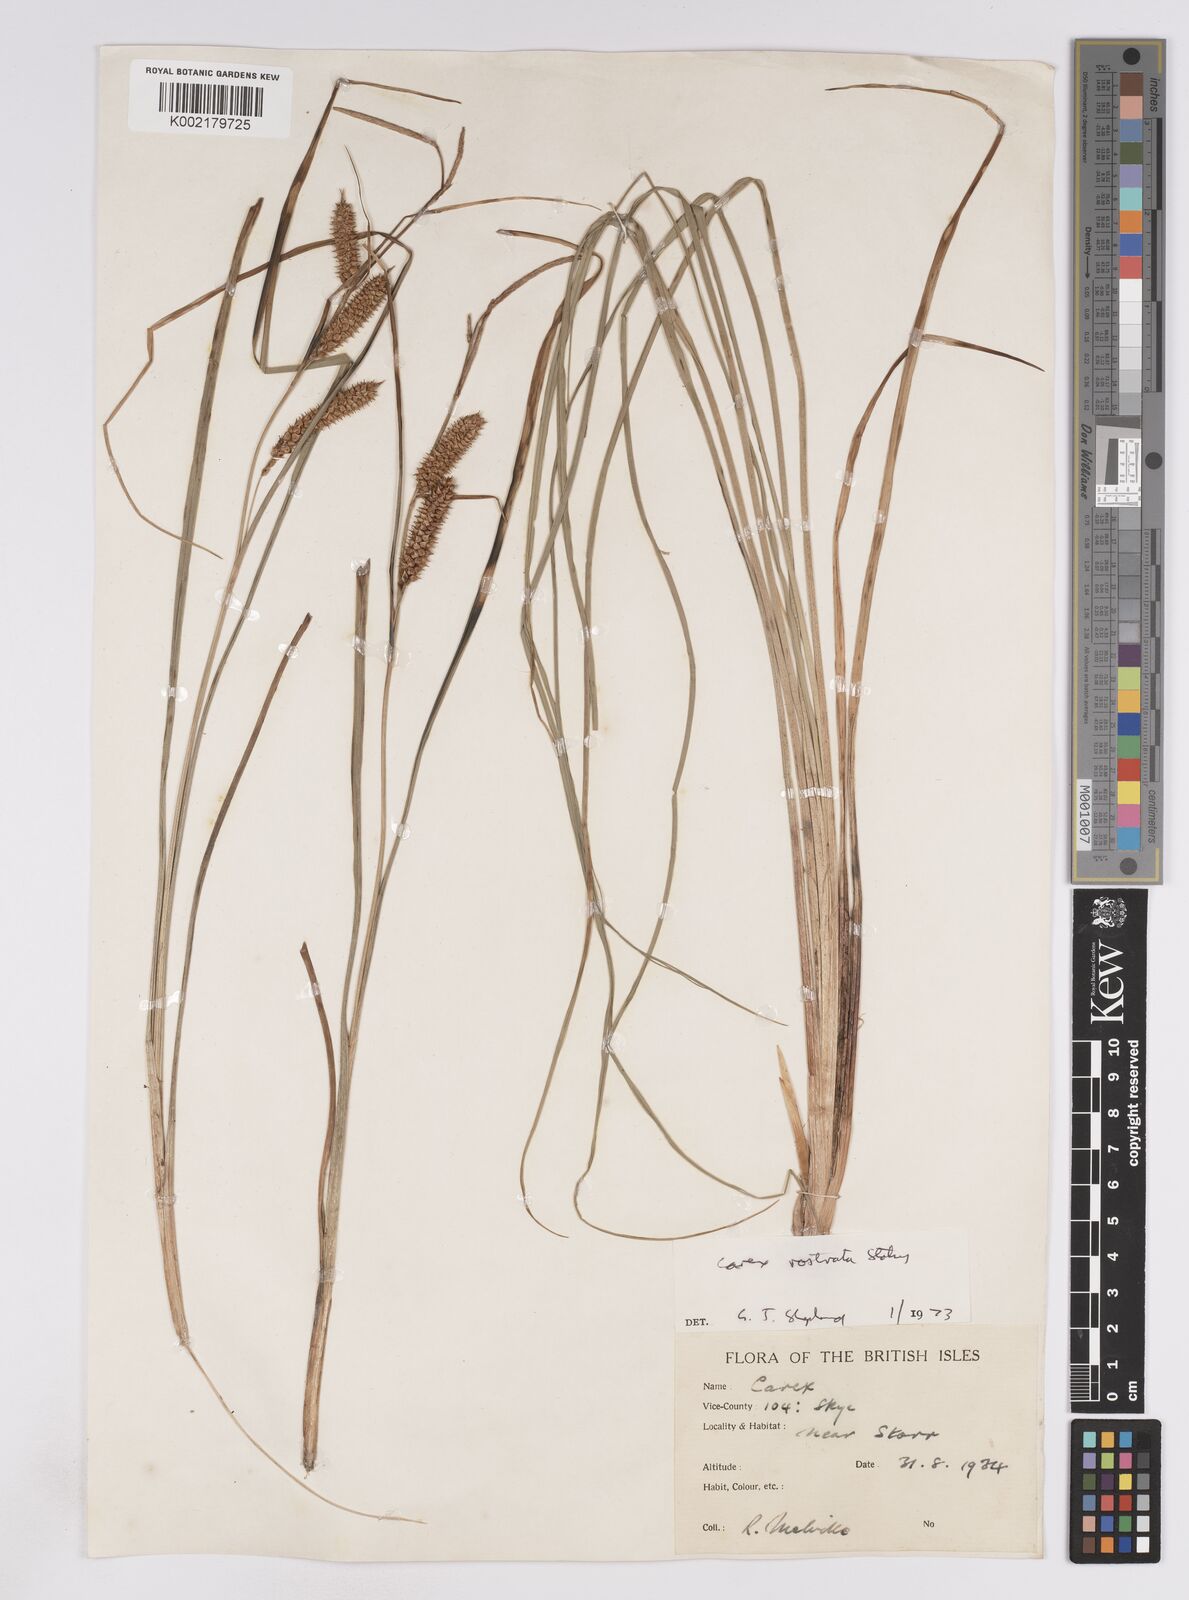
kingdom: Plantae
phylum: Tracheophyta
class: Liliopsida
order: Poales
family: Cyperaceae
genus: Carex
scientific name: Carex rostrata
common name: Bottle sedge
